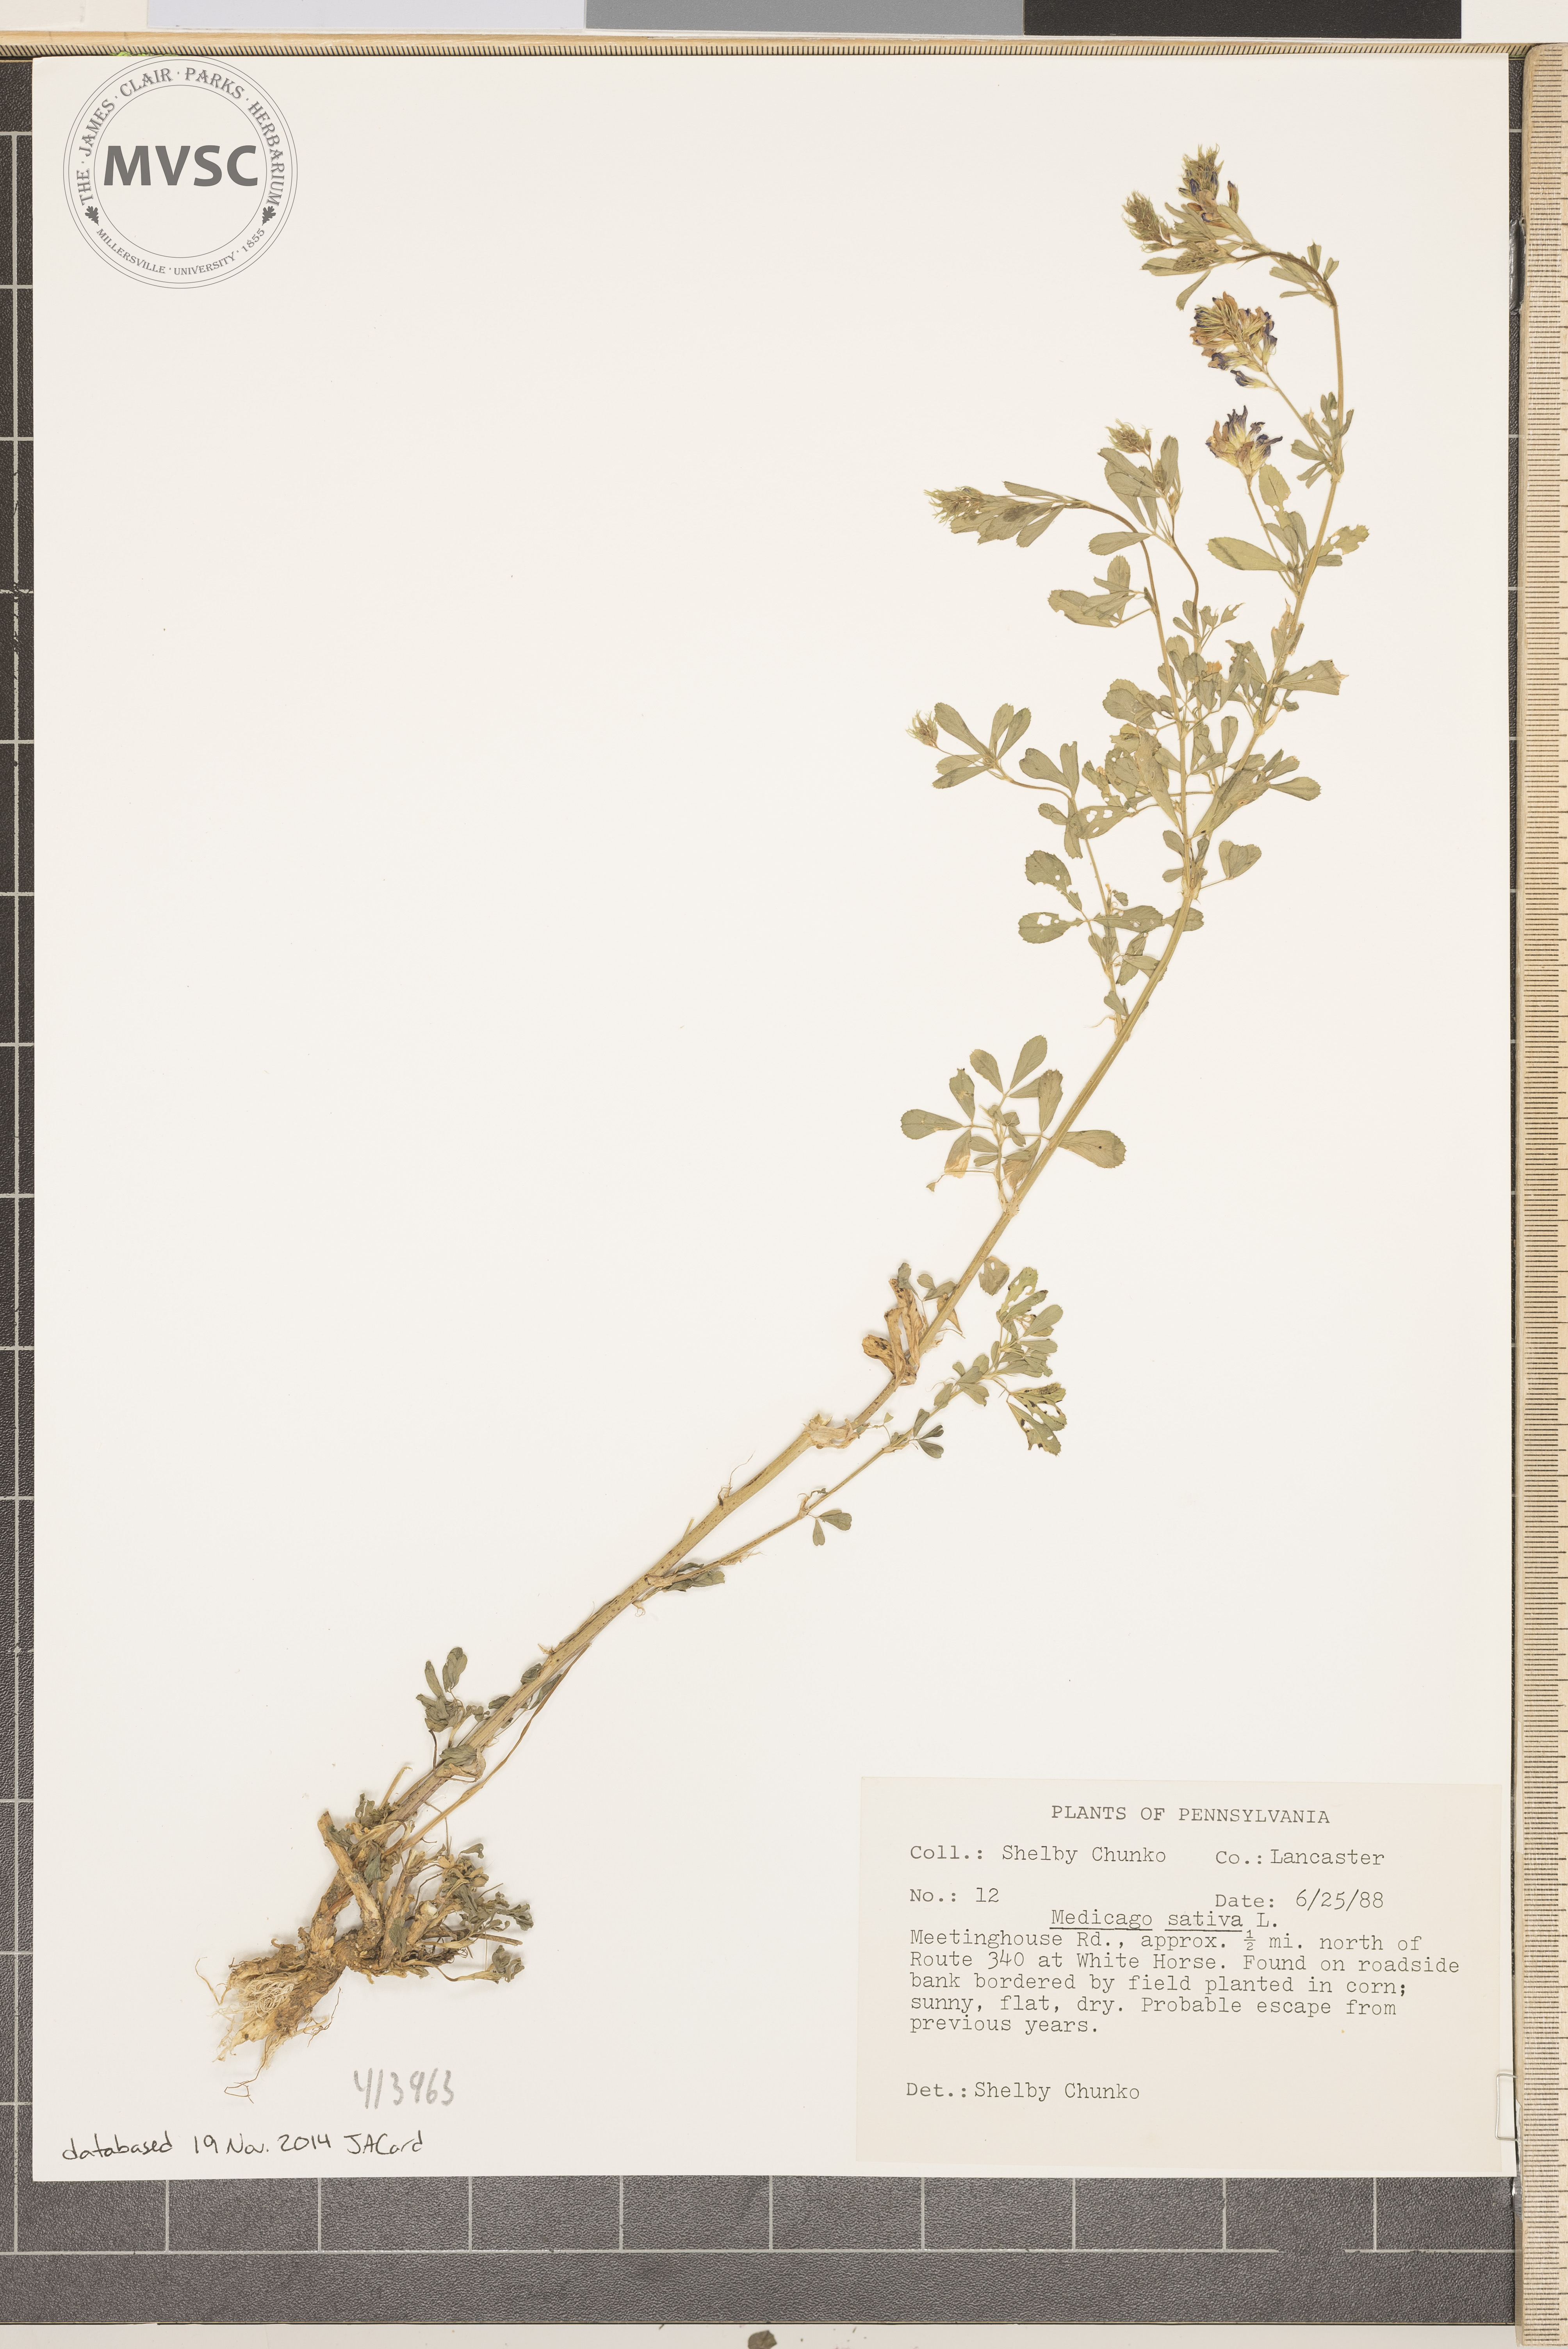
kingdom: Plantae
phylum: Tracheophyta
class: Magnoliopsida
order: Fabales
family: Fabaceae
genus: Medicago
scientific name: Medicago sativa
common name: alfalfa
